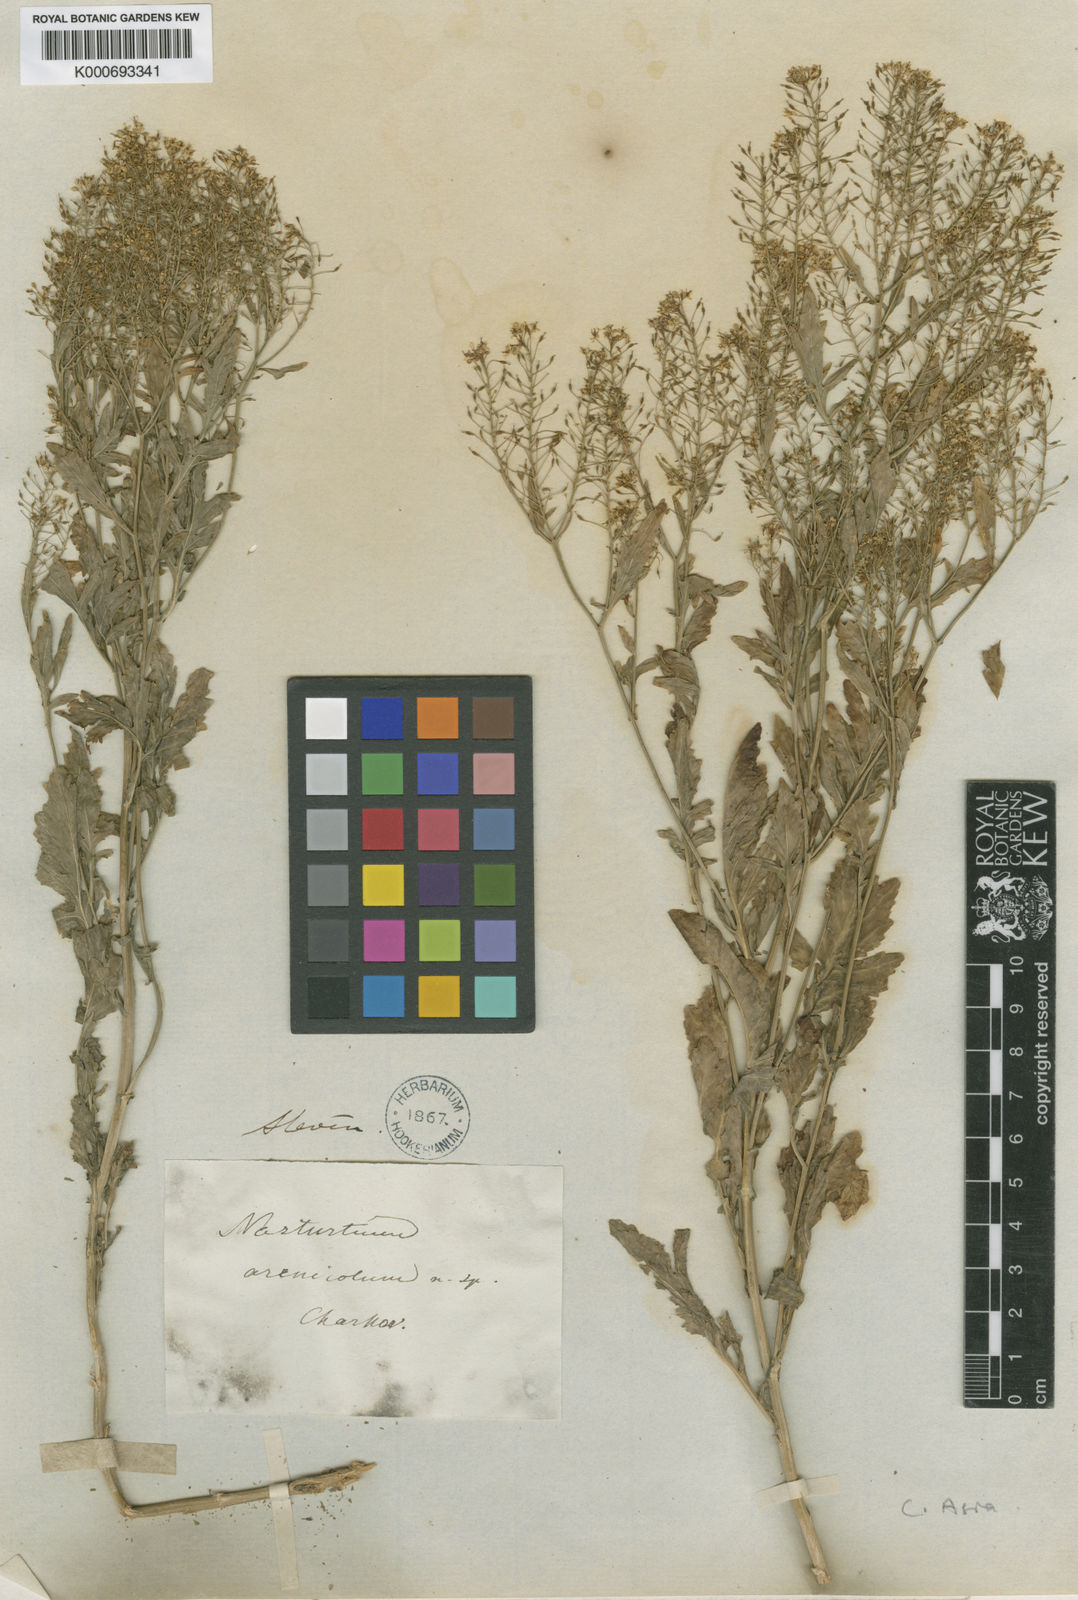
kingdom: Plantae
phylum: Tracheophyta
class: Magnoliopsida
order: Brassicales
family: Brassicaceae
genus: Rorippa
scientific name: Rorippa
